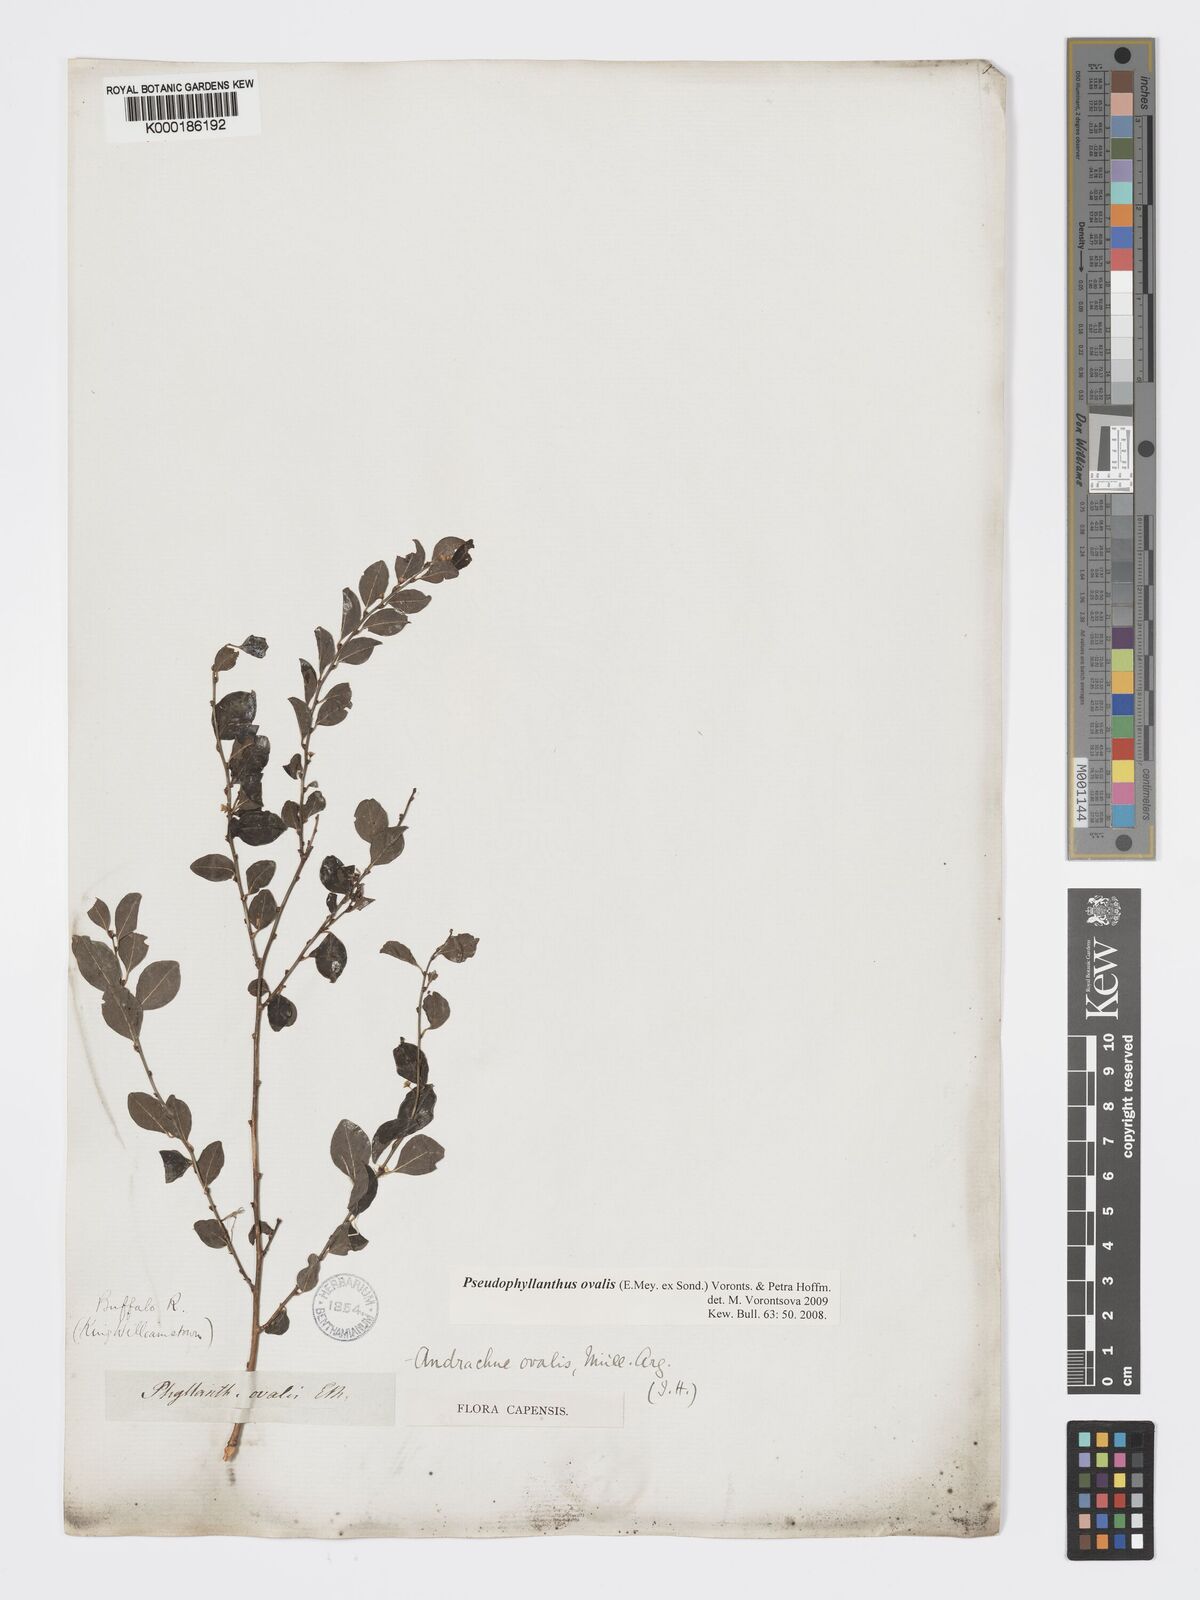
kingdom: Plantae
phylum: Tracheophyta
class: Magnoliopsida
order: Malpighiales
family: Phyllanthaceae
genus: Pseudophyllanthus
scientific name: Pseudophyllanthus ovalis
